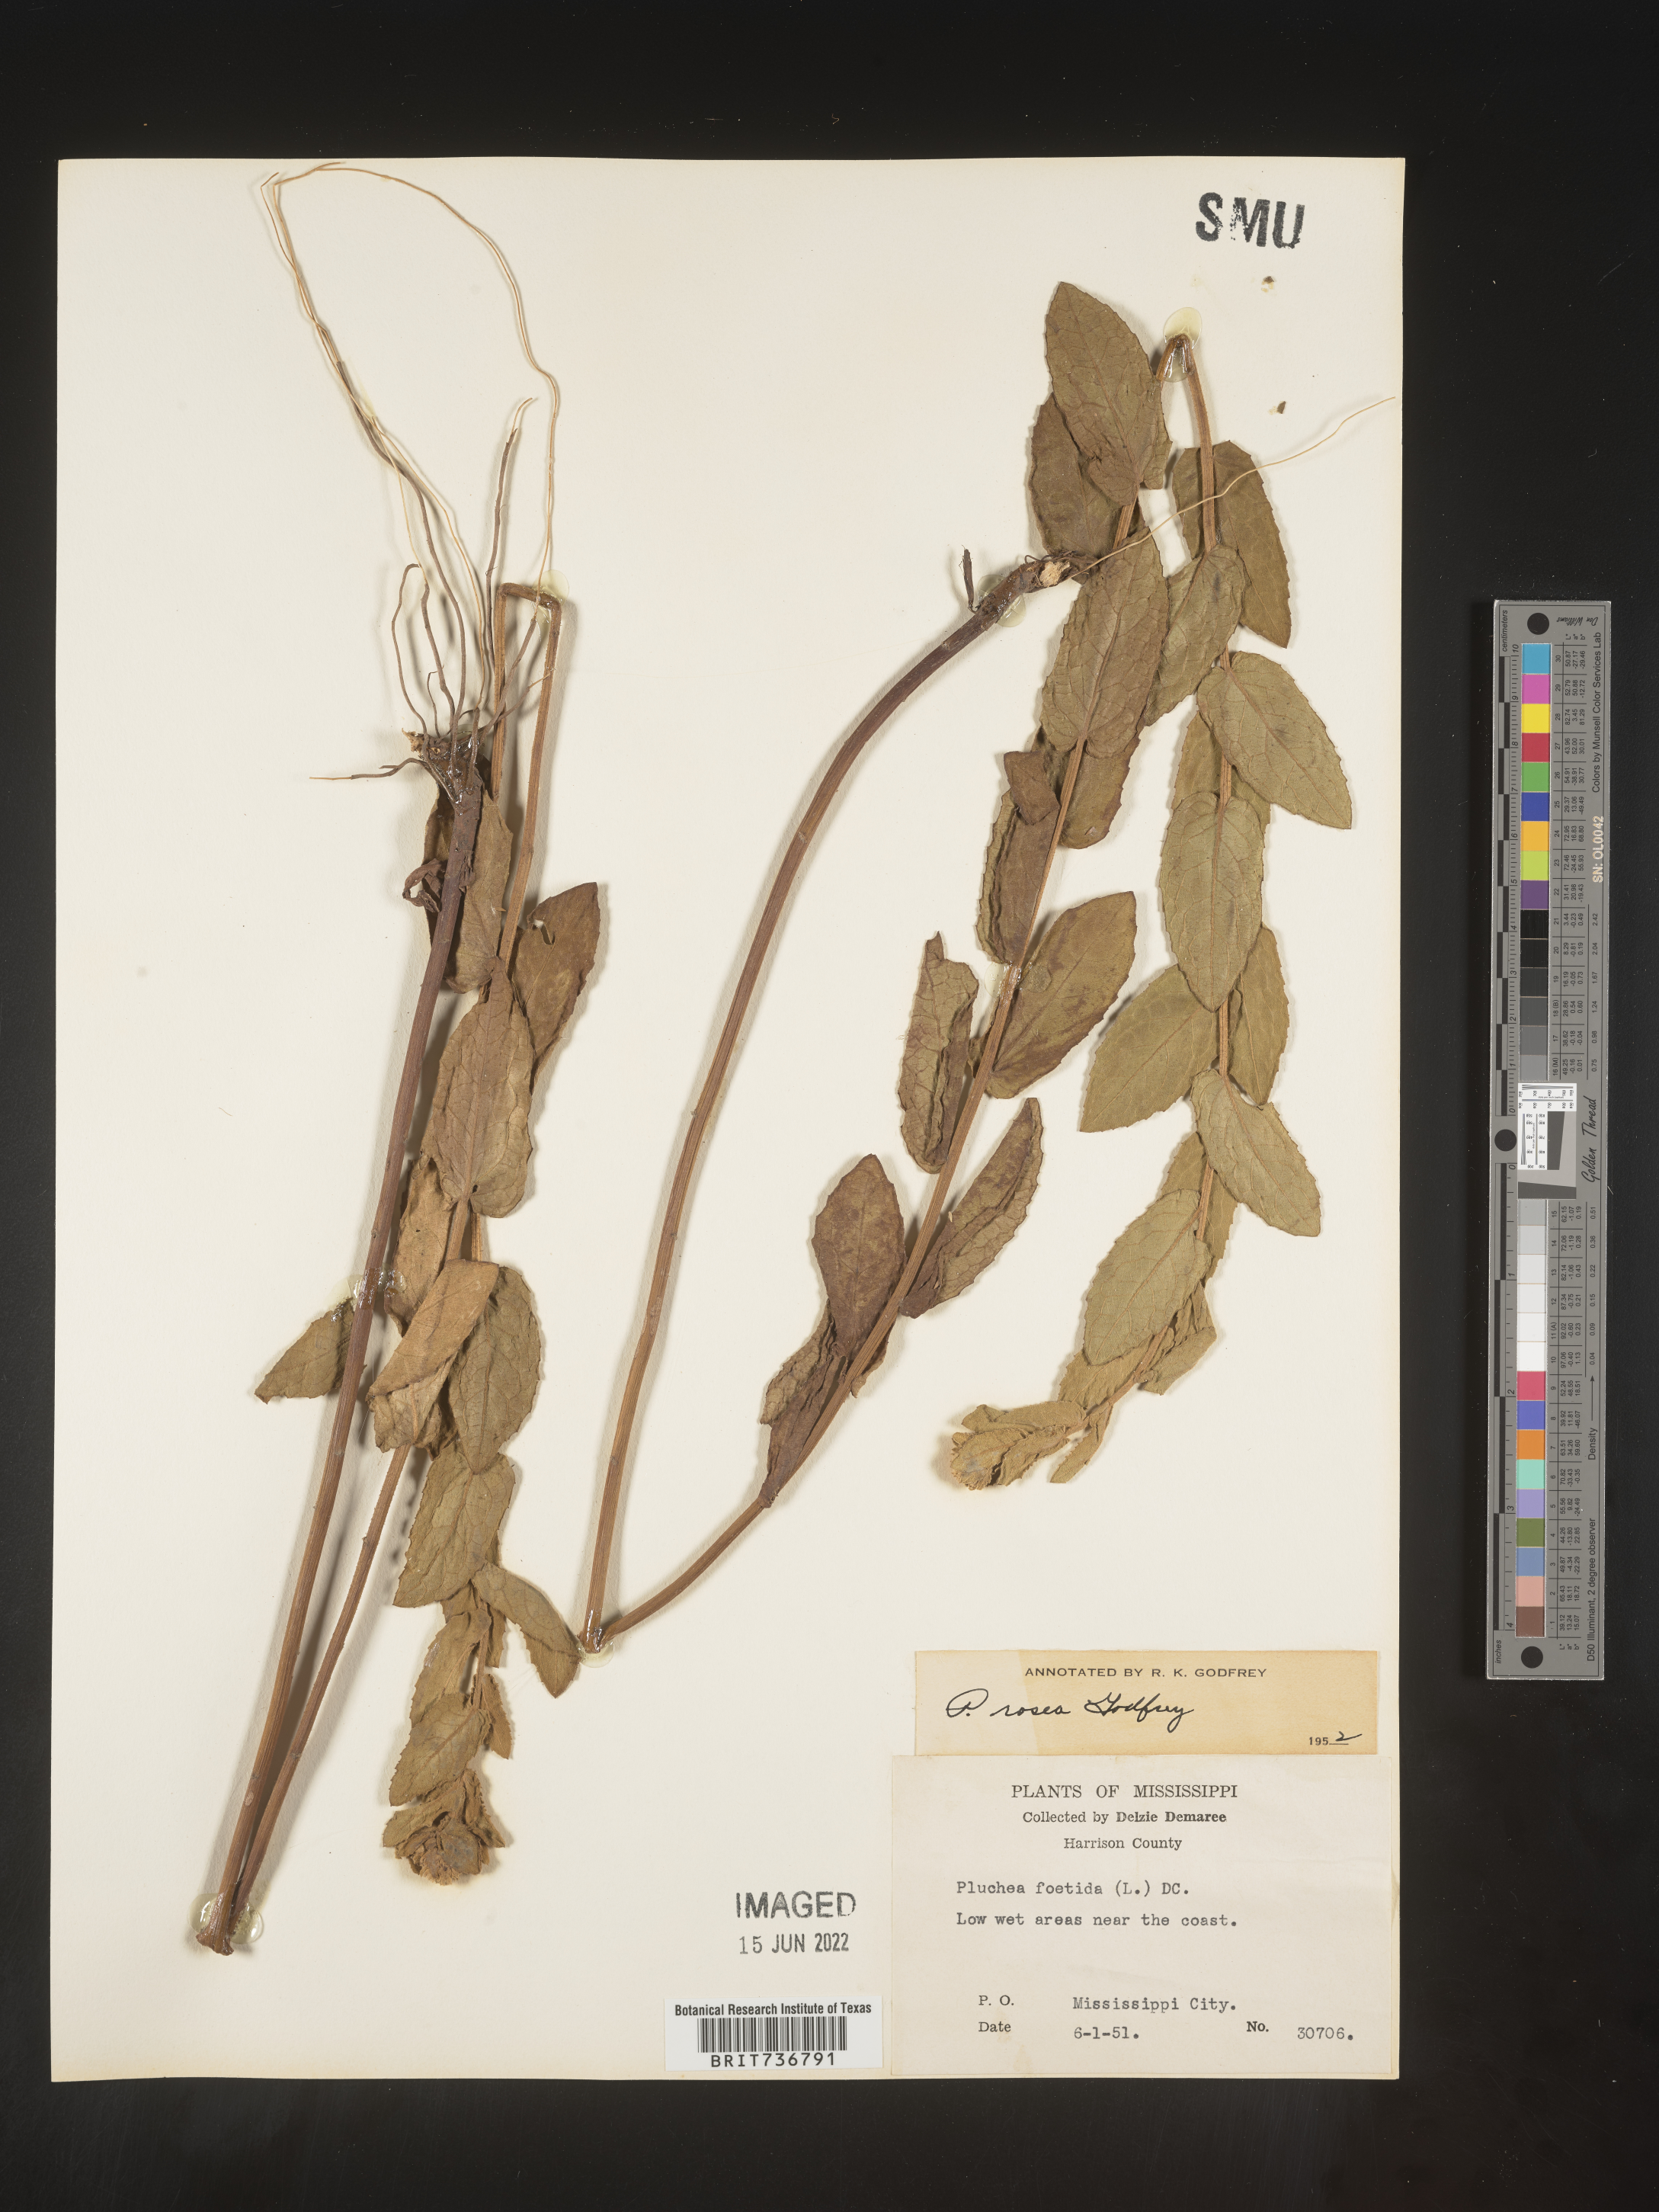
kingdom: Plantae
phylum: Tracheophyta
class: Magnoliopsida
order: Asterales
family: Asteraceae
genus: Pluchea
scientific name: Pluchea baccharis
